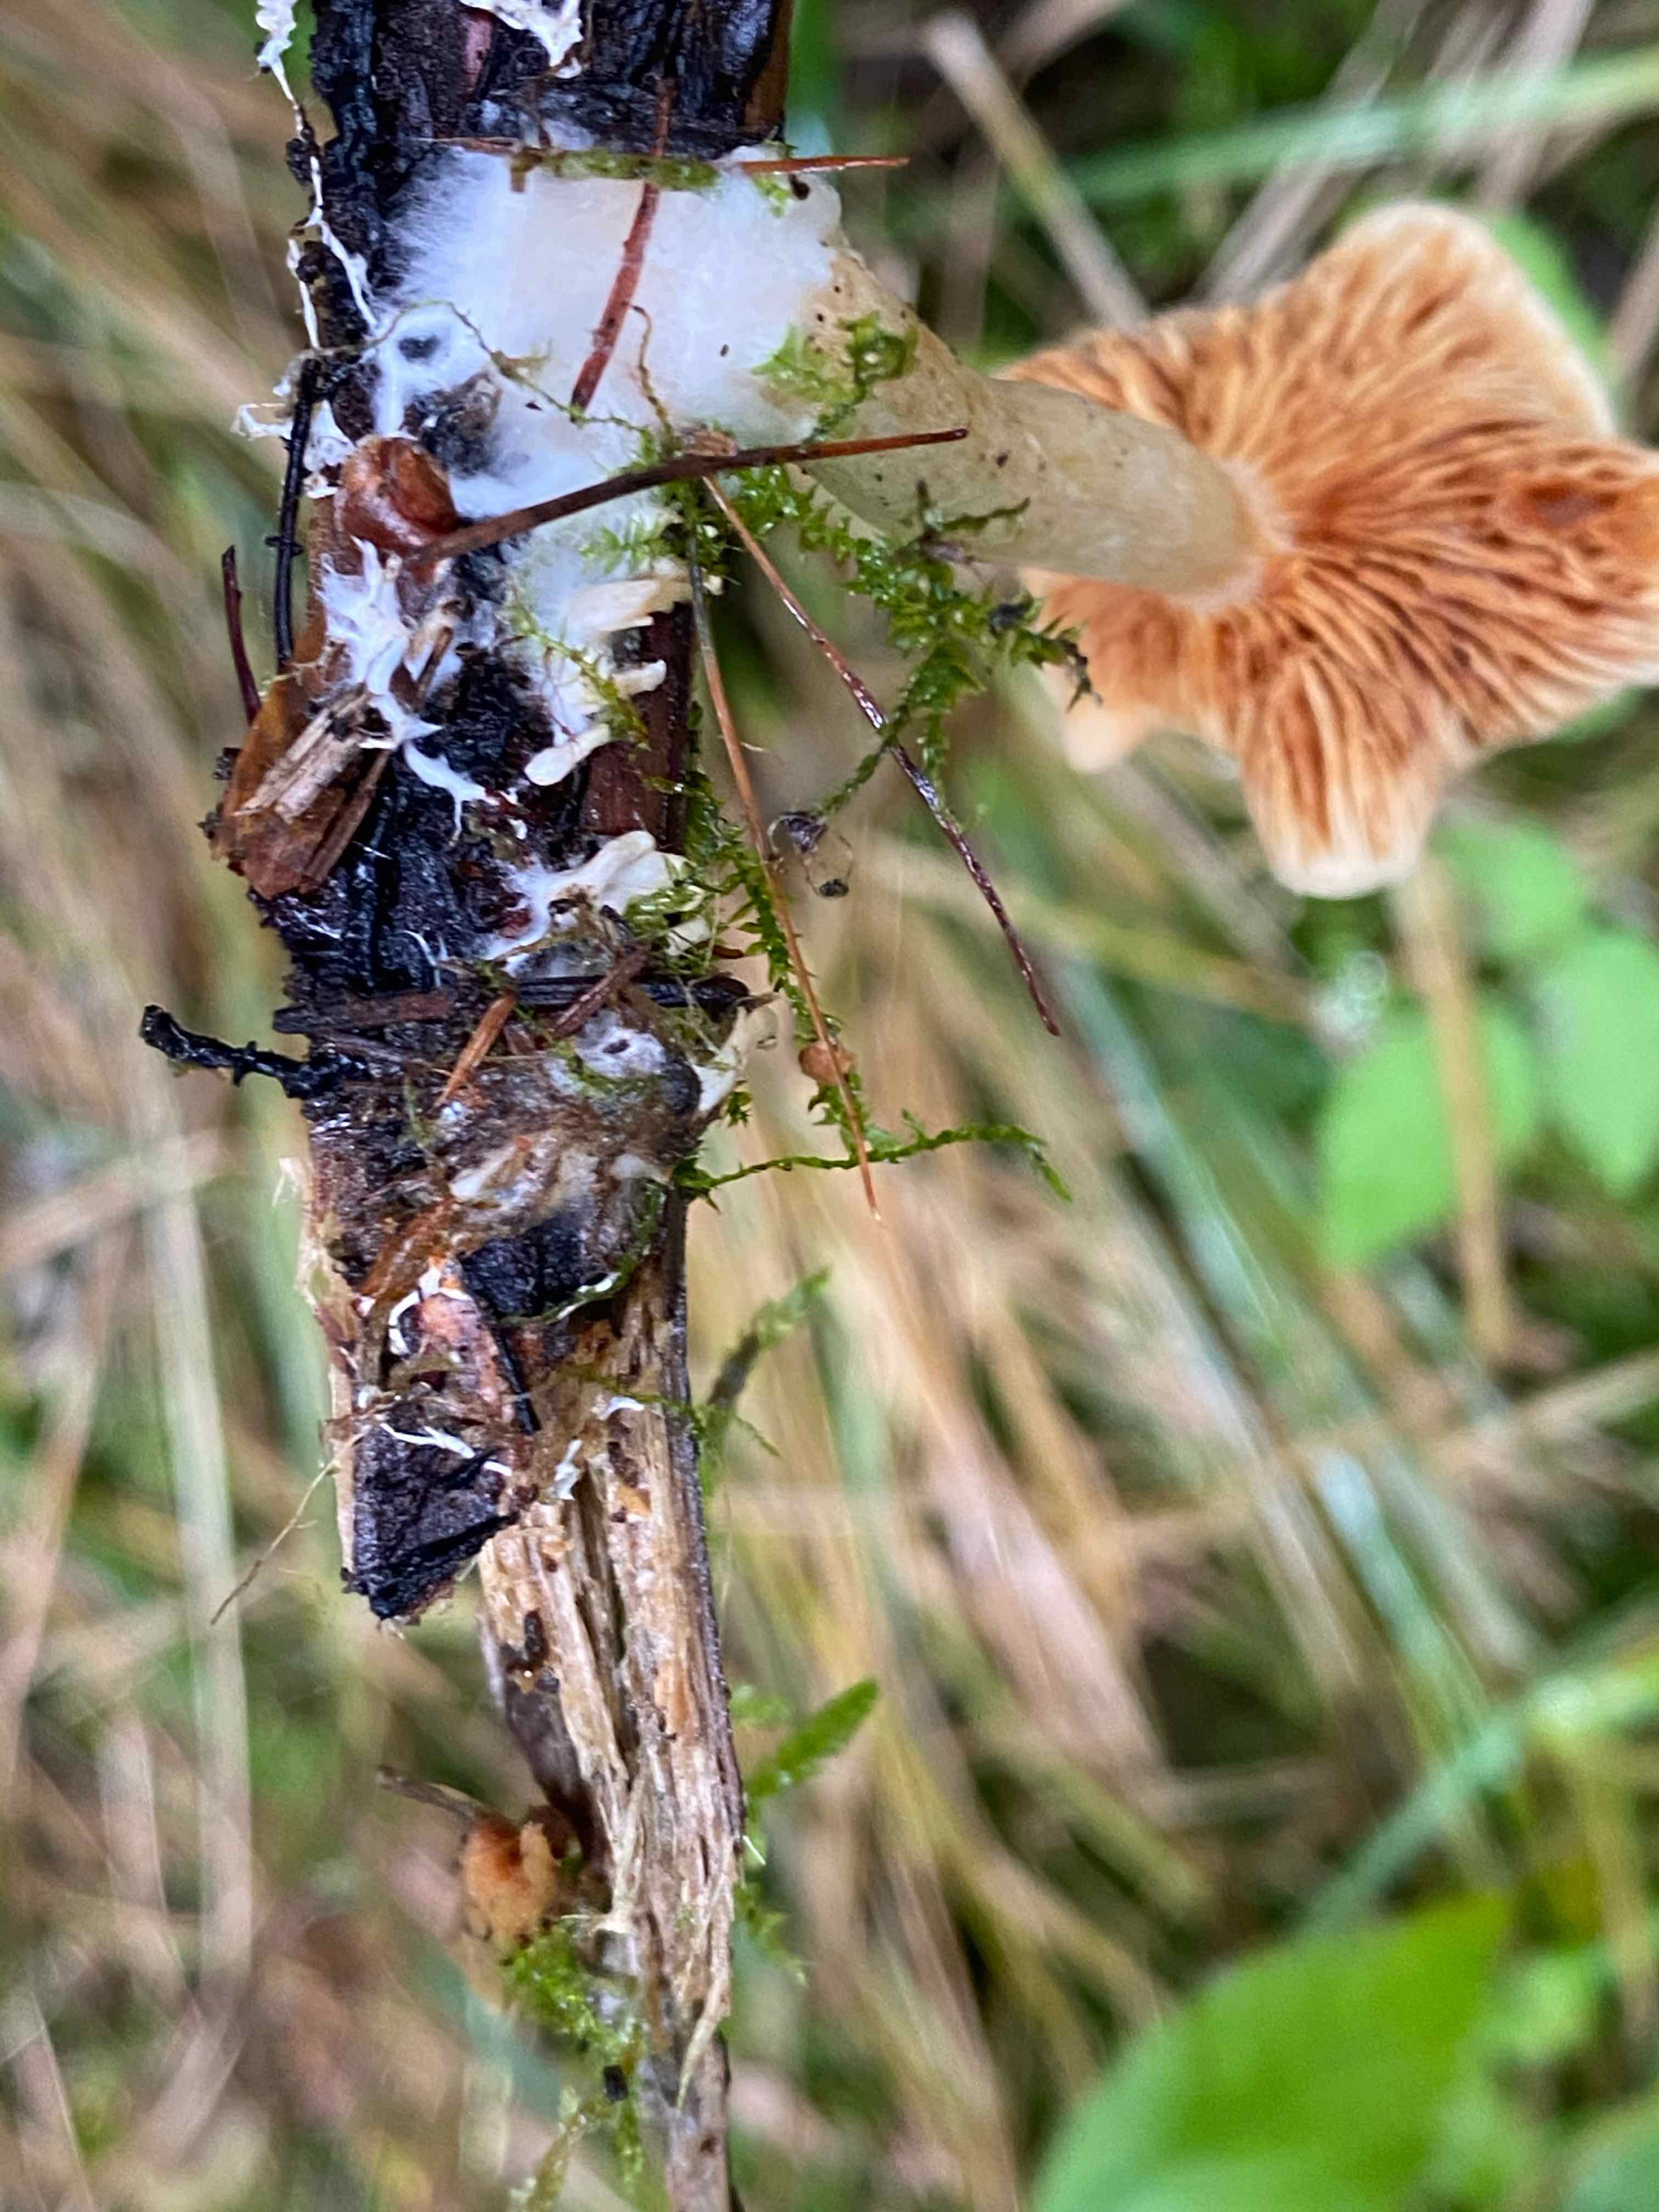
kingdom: Fungi
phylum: Basidiomycota
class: Agaricomycetes
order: Agaricales
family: Hymenogastraceae
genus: Gymnopilus
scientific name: Gymnopilus penetrans
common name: plettet flammehat
